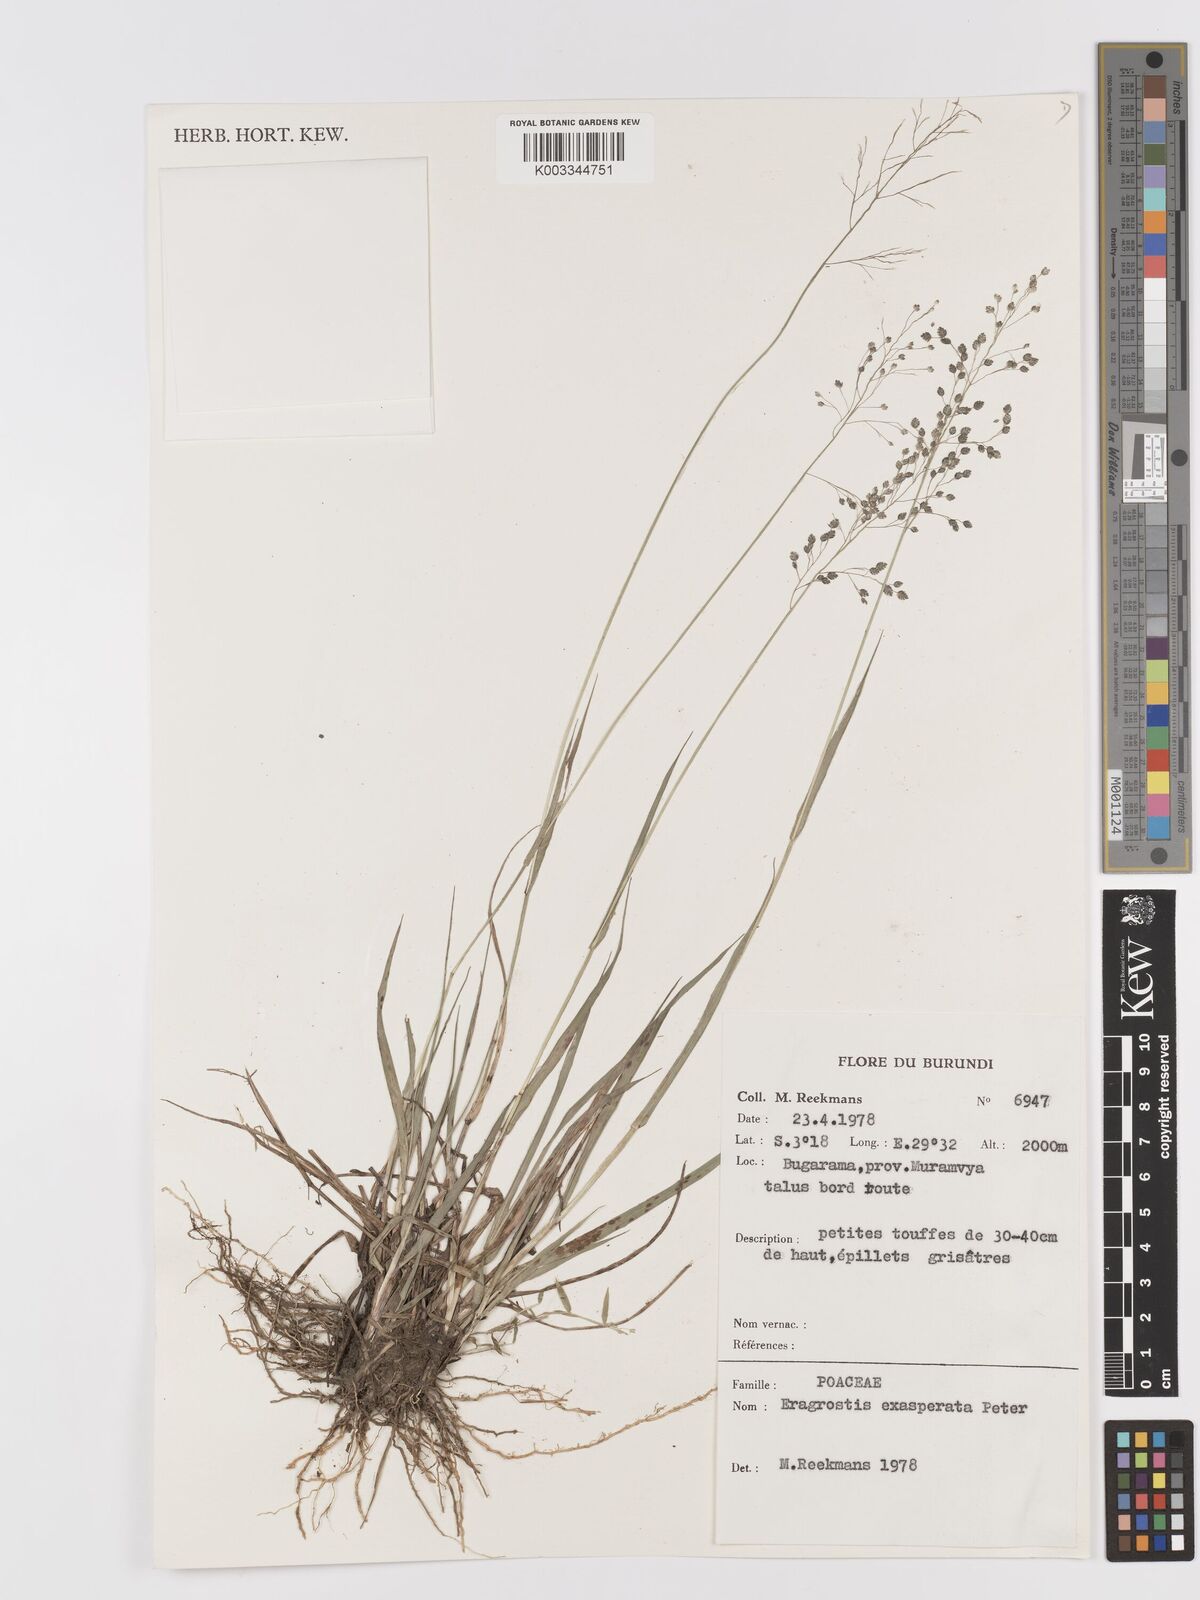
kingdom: Plantae
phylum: Tracheophyta
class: Liliopsida
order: Poales
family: Poaceae
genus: Eragrostis
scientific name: Eragrostis exasperata
